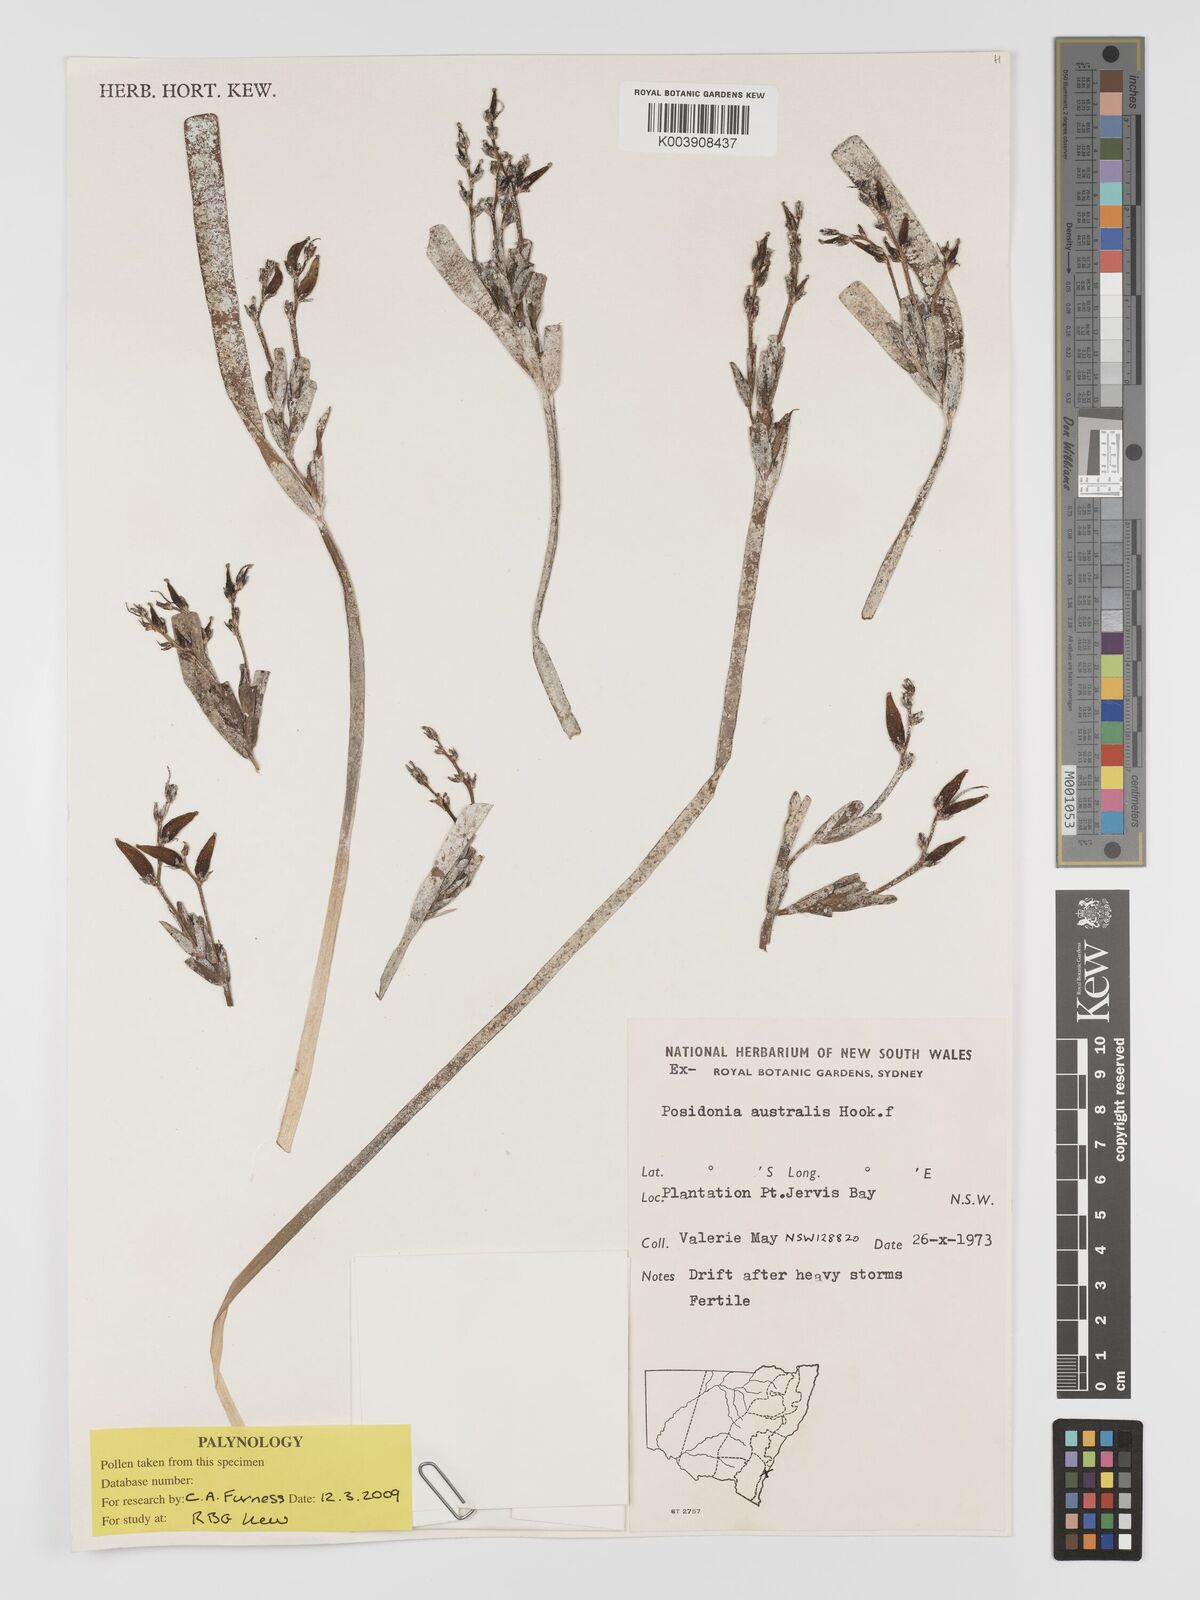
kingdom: Plantae
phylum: Tracheophyta
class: Liliopsida
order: Alismatales
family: Posidoniaceae
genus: Posidonia
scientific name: Posidonia australis
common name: Species code: pa
